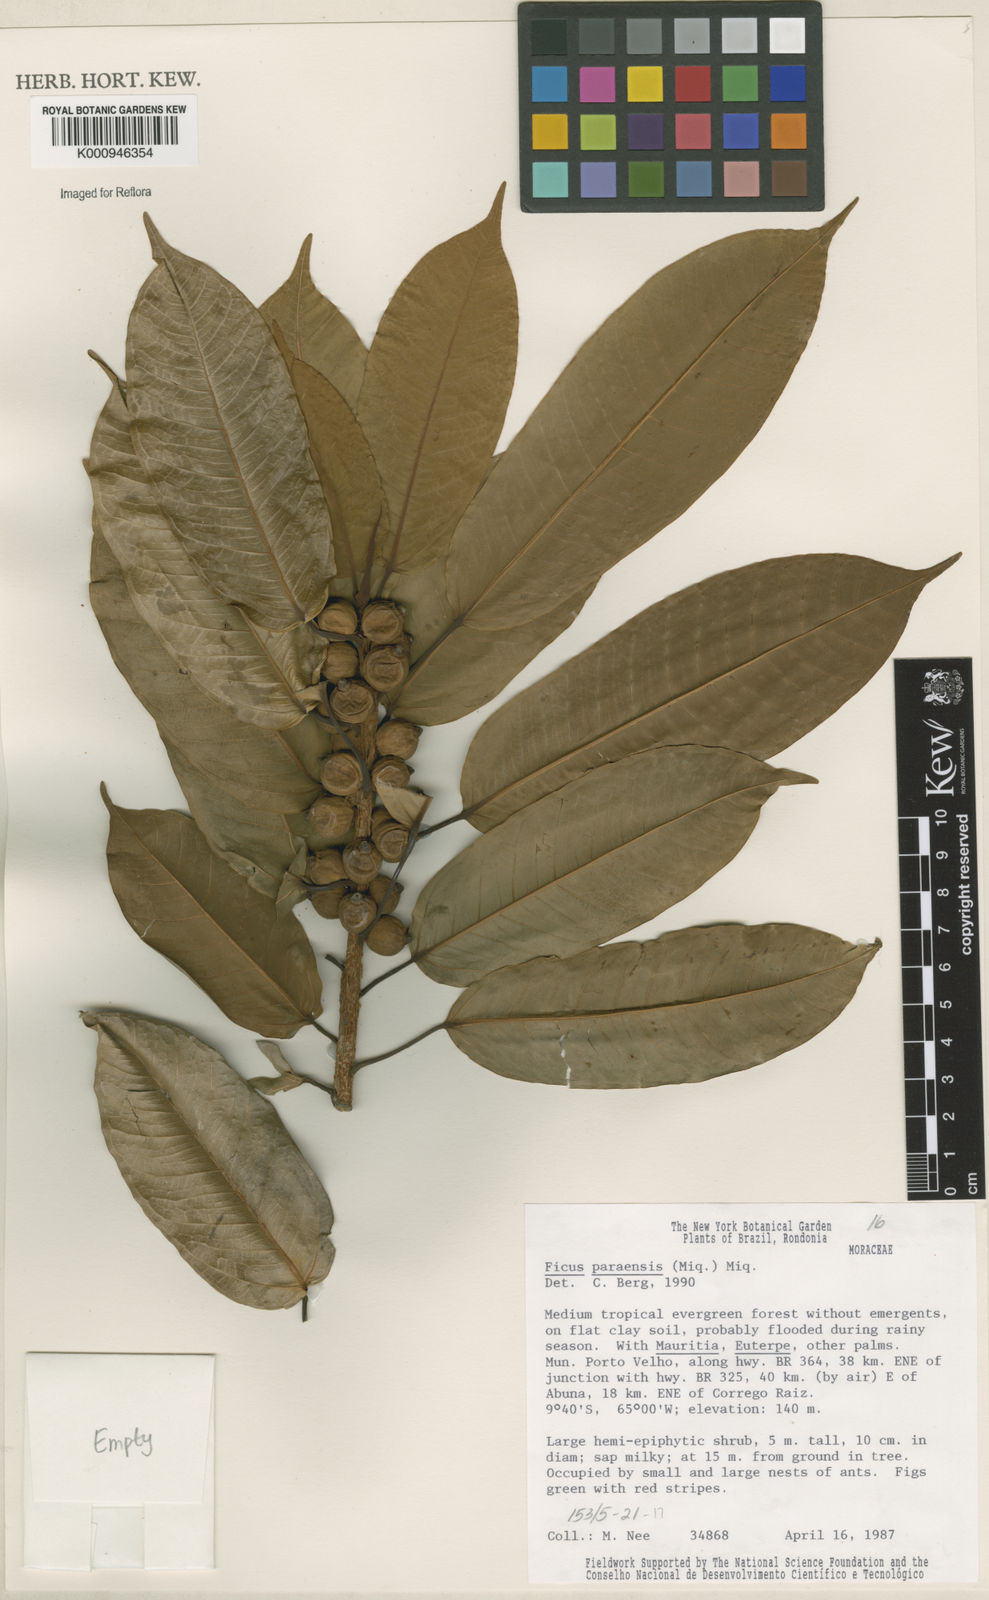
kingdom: Plantae
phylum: Tracheophyta
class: Magnoliopsida
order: Rosales
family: Moraceae
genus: Ficus
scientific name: Ficus paraensis
